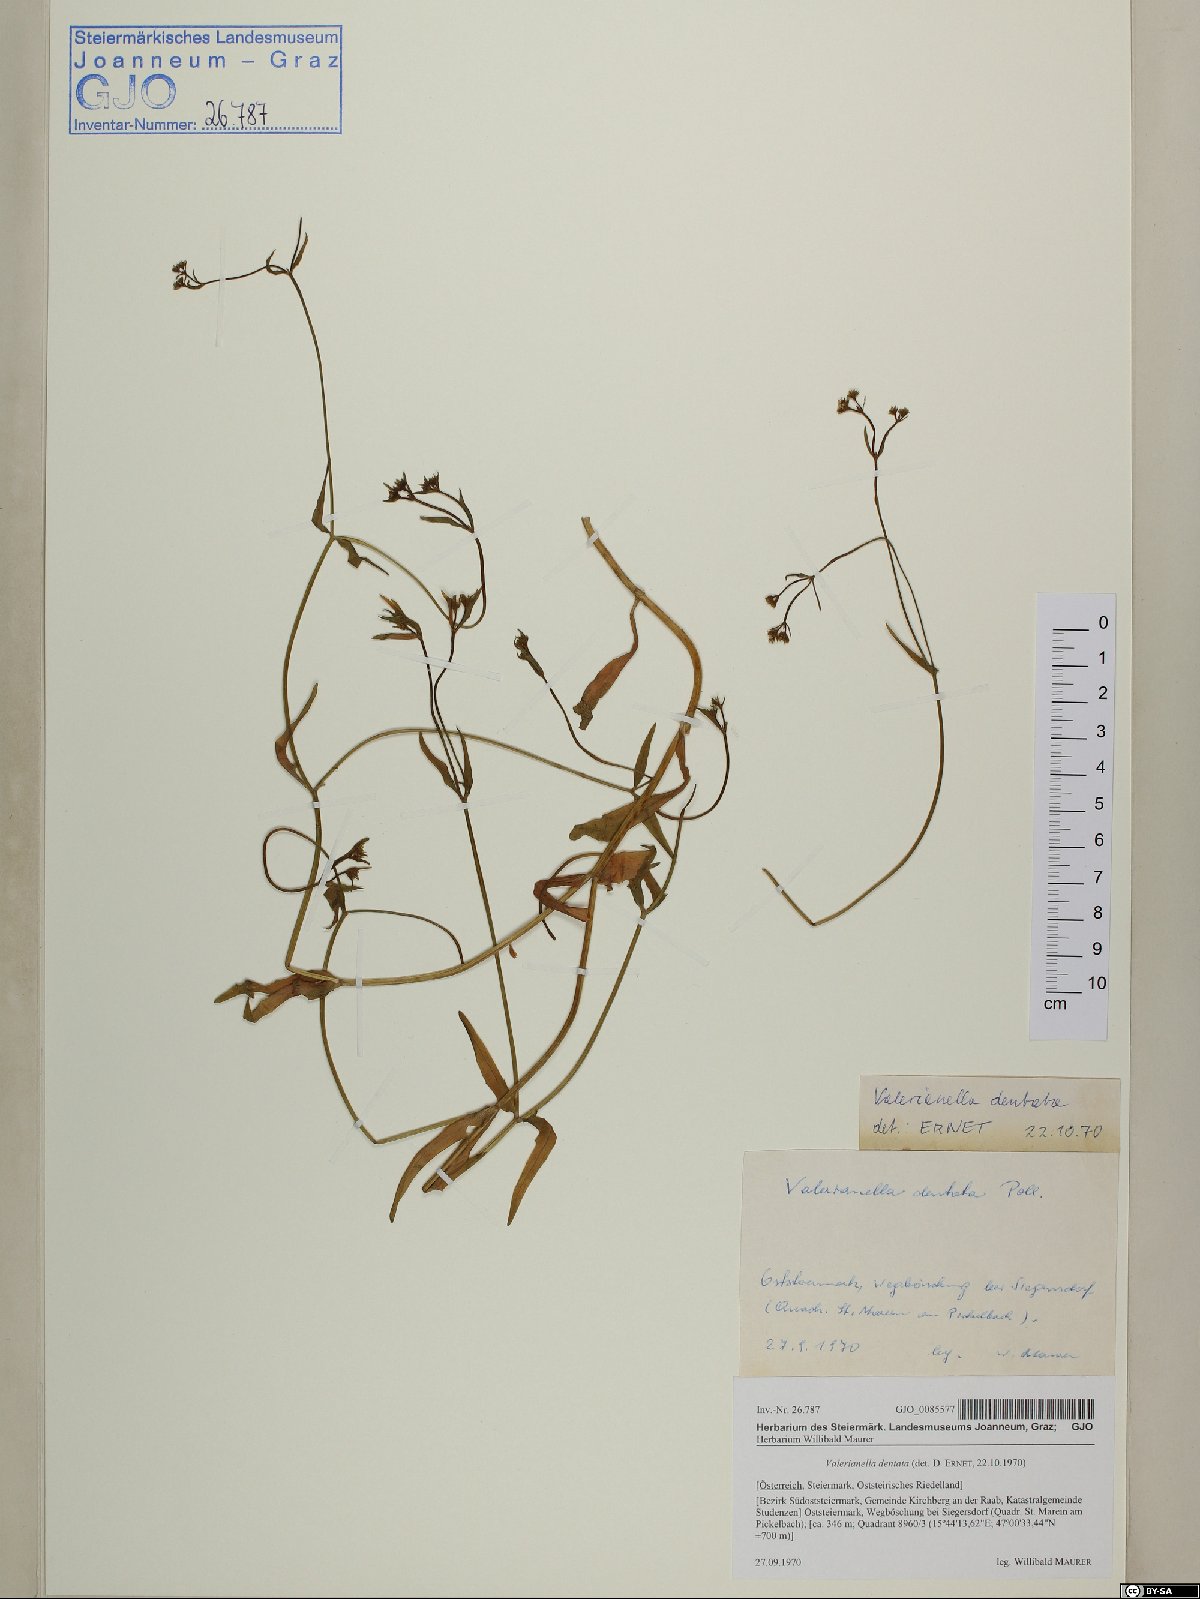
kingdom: Plantae
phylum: Tracheophyta
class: Magnoliopsida
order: Dipsacales
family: Caprifoliaceae
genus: Valerianella
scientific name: Valerianella dentata
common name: Narrow-fruited cornsalad
